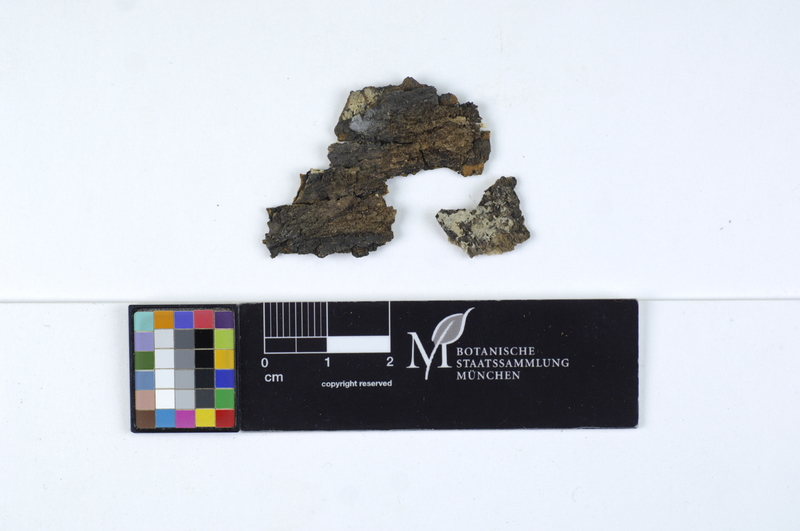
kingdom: Fungi
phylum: Basidiomycota
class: Agaricomycetes
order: Agaricales
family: Stephanosporaceae
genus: Cristinia
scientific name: Cristinia rhenana
